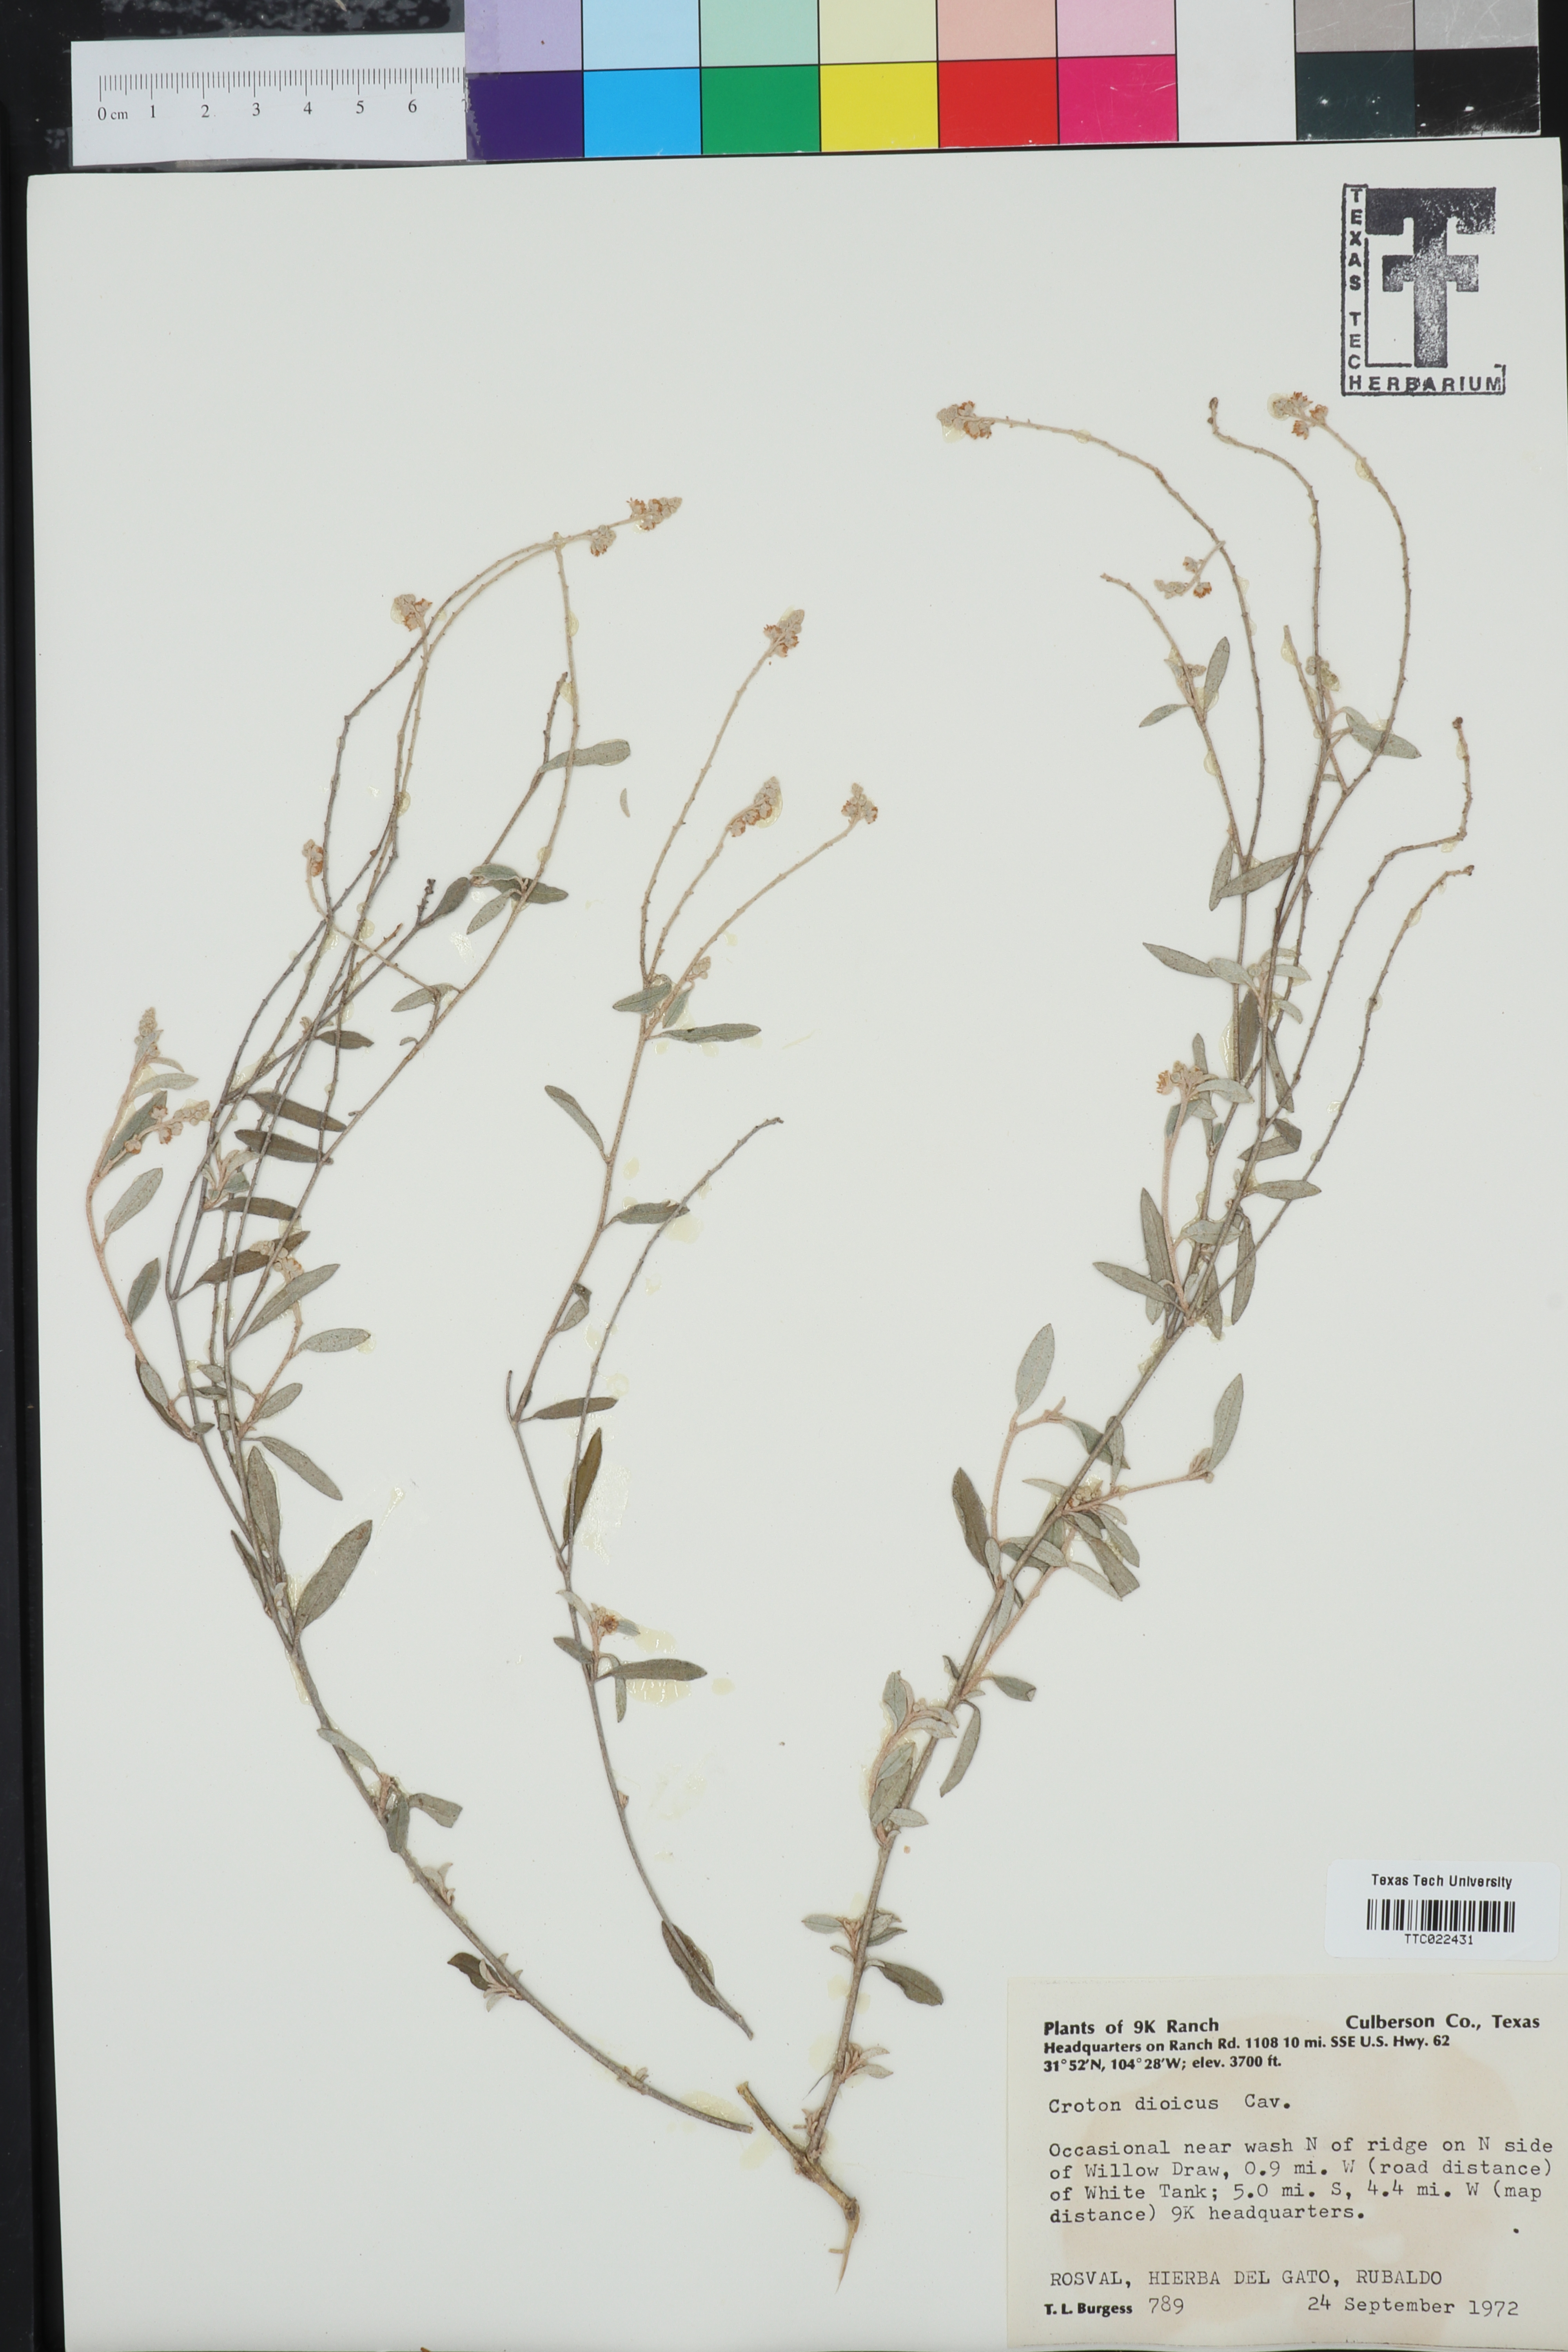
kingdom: Plantae
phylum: Tracheophyta
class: Magnoliopsida
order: Malpighiales
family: Euphorbiaceae
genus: Croton
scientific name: Croton dioicus
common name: Grassland croton
